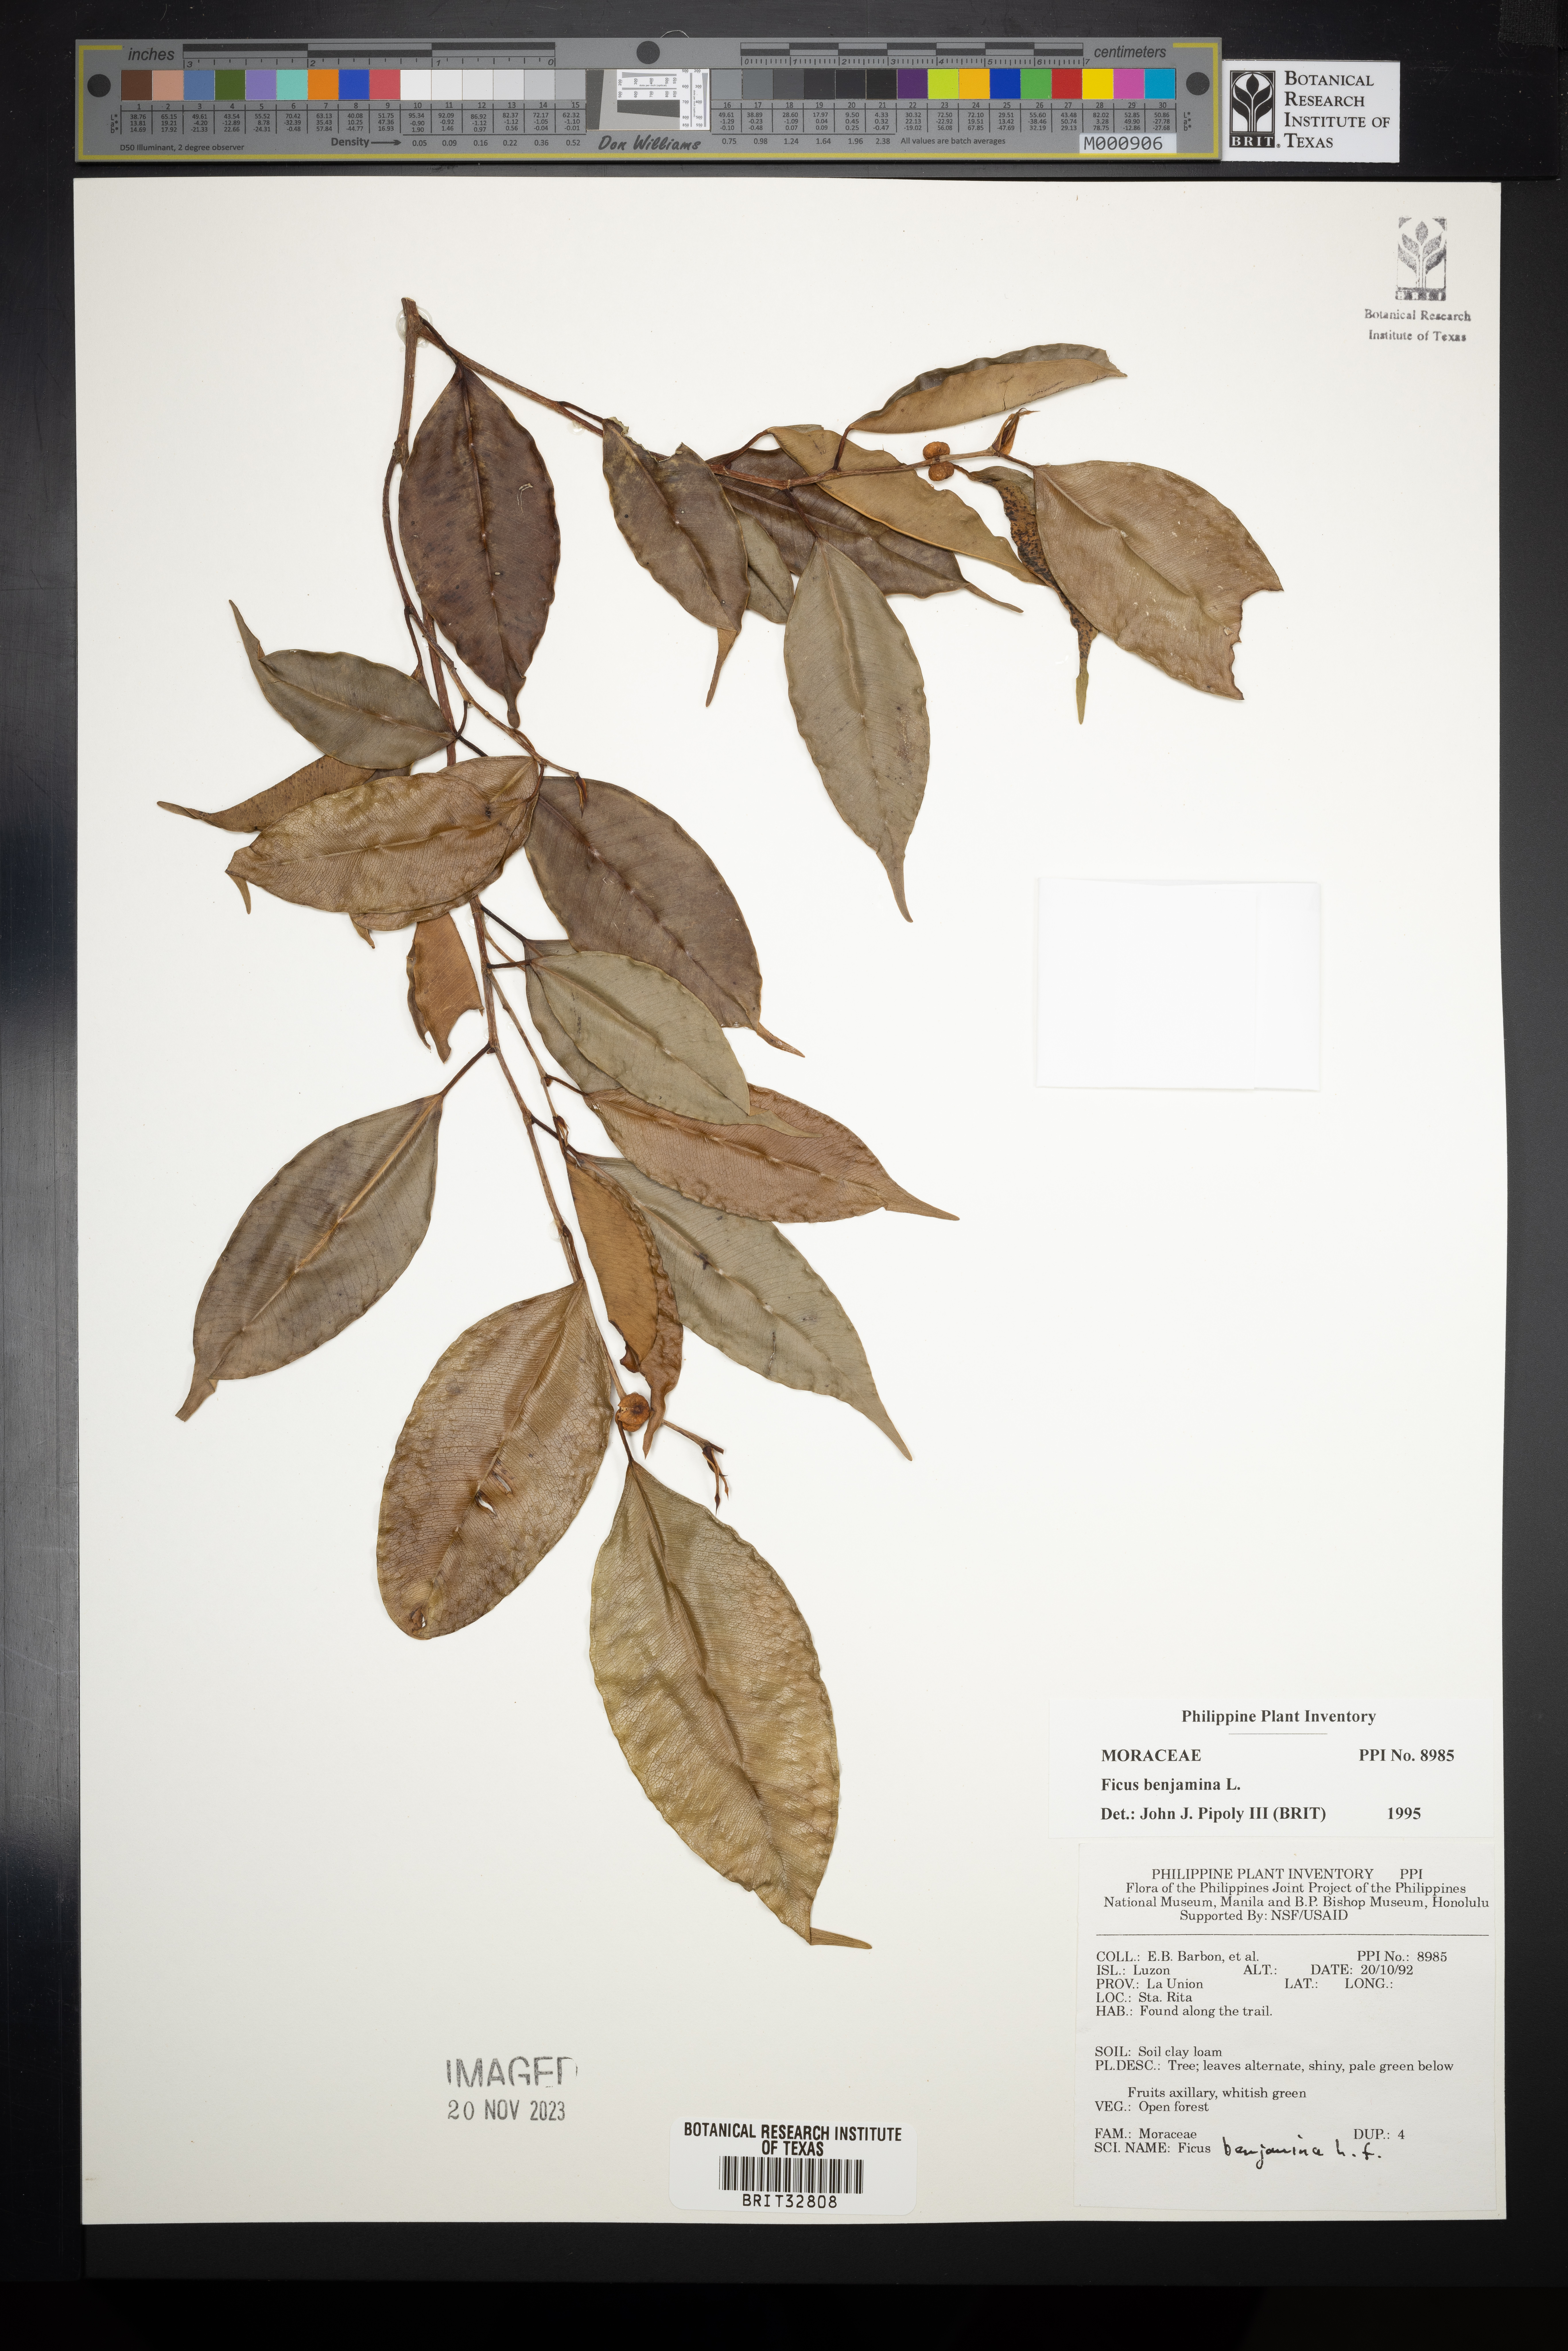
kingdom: Plantae
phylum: Tracheophyta
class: Magnoliopsida
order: Rosales
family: Moraceae
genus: Ficus
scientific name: Ficus benjamina
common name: Weeping fig
